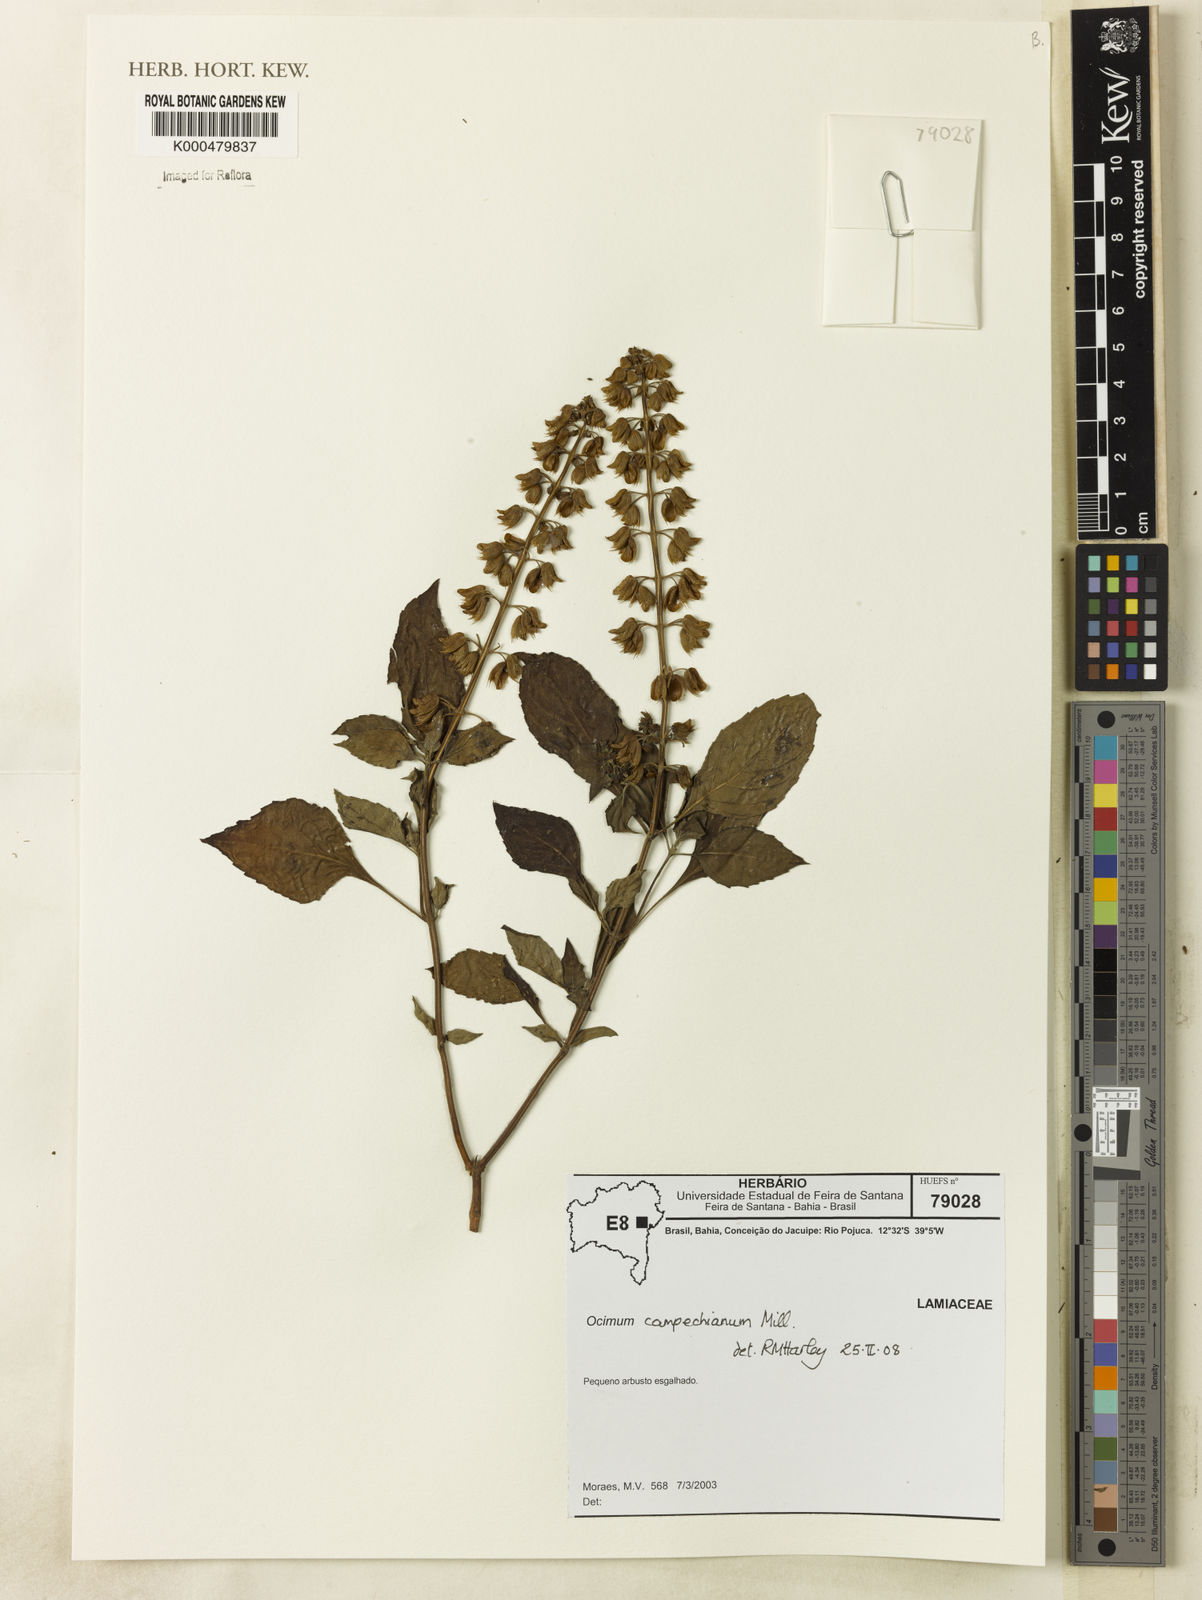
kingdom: Plantae
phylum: Tracheophyta
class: Magnoliopsida
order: Lamiales
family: Lamiaceae
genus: Ocimum
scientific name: Ocimum campechianum
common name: Mosquito basil
